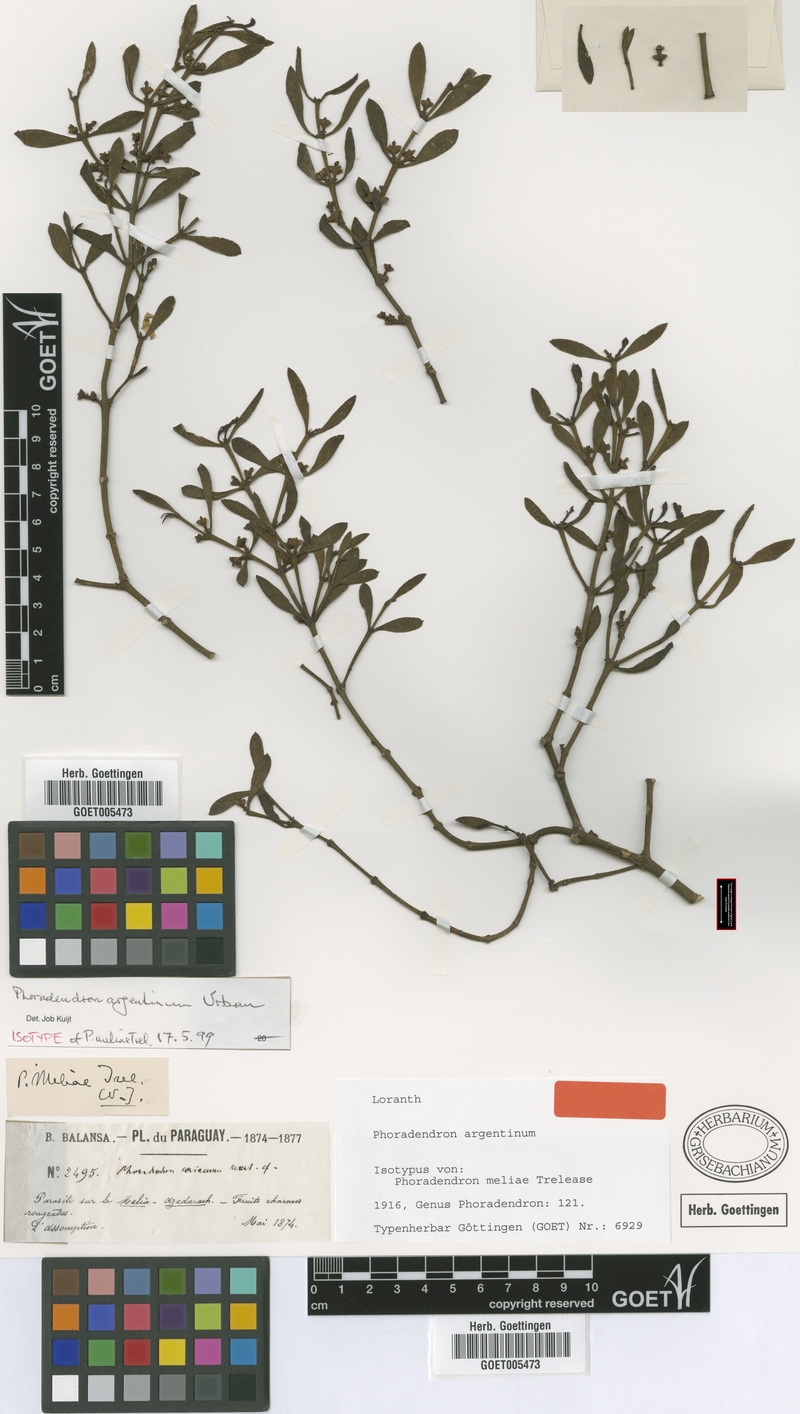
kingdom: Plantae
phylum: Tracheophyta
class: Magnoliopsida
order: Santalales
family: Viscaceae
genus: Phoradendron
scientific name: Phoradendron argentinum
